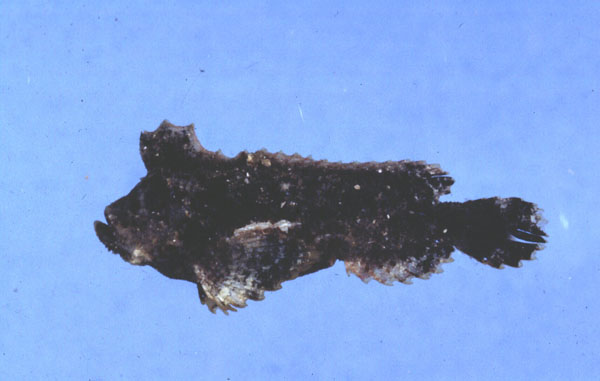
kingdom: Animalia
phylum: Chordata
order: Scorpaeniformes
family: Aploactinidae
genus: Cocotropus
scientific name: Cocotropus monacanthus
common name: Roughskin scorpionfish
